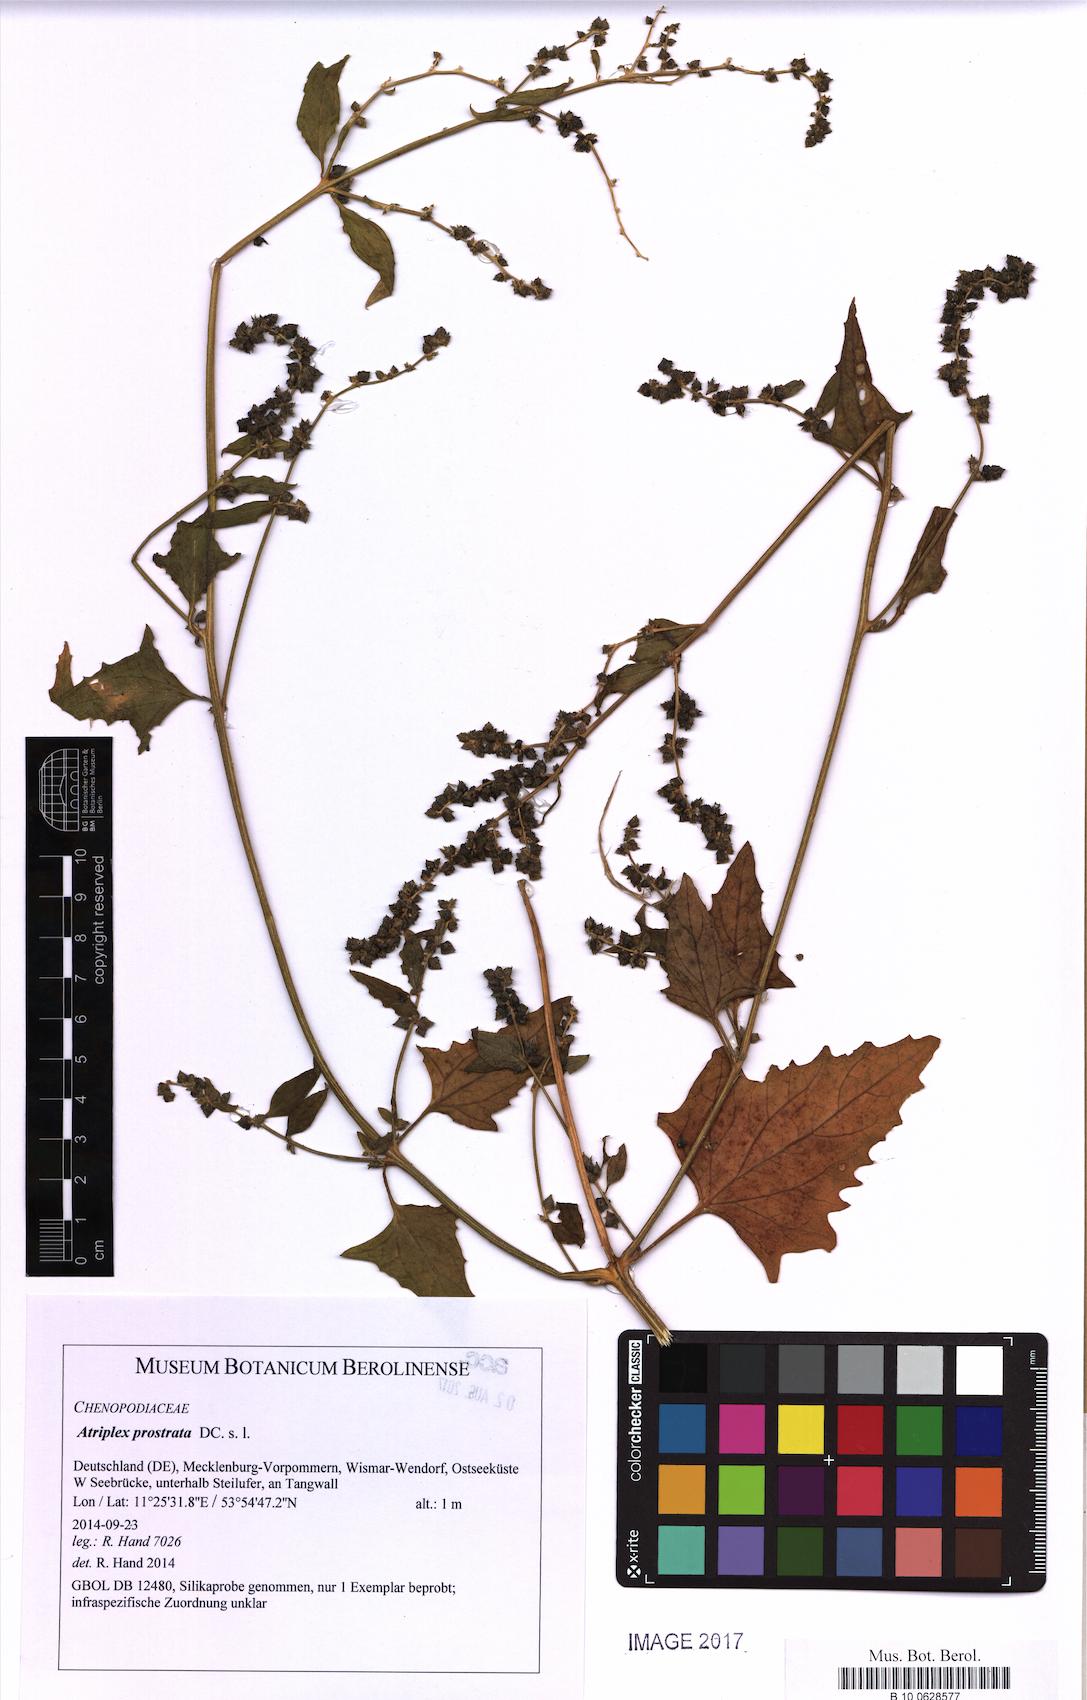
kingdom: Plantae
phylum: Tracheophyta
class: Magnoliopsida
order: Caryophyllales
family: Amaranthaceae
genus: Atriplex
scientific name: Atriplex prostrata
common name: Spear-leaved orache
